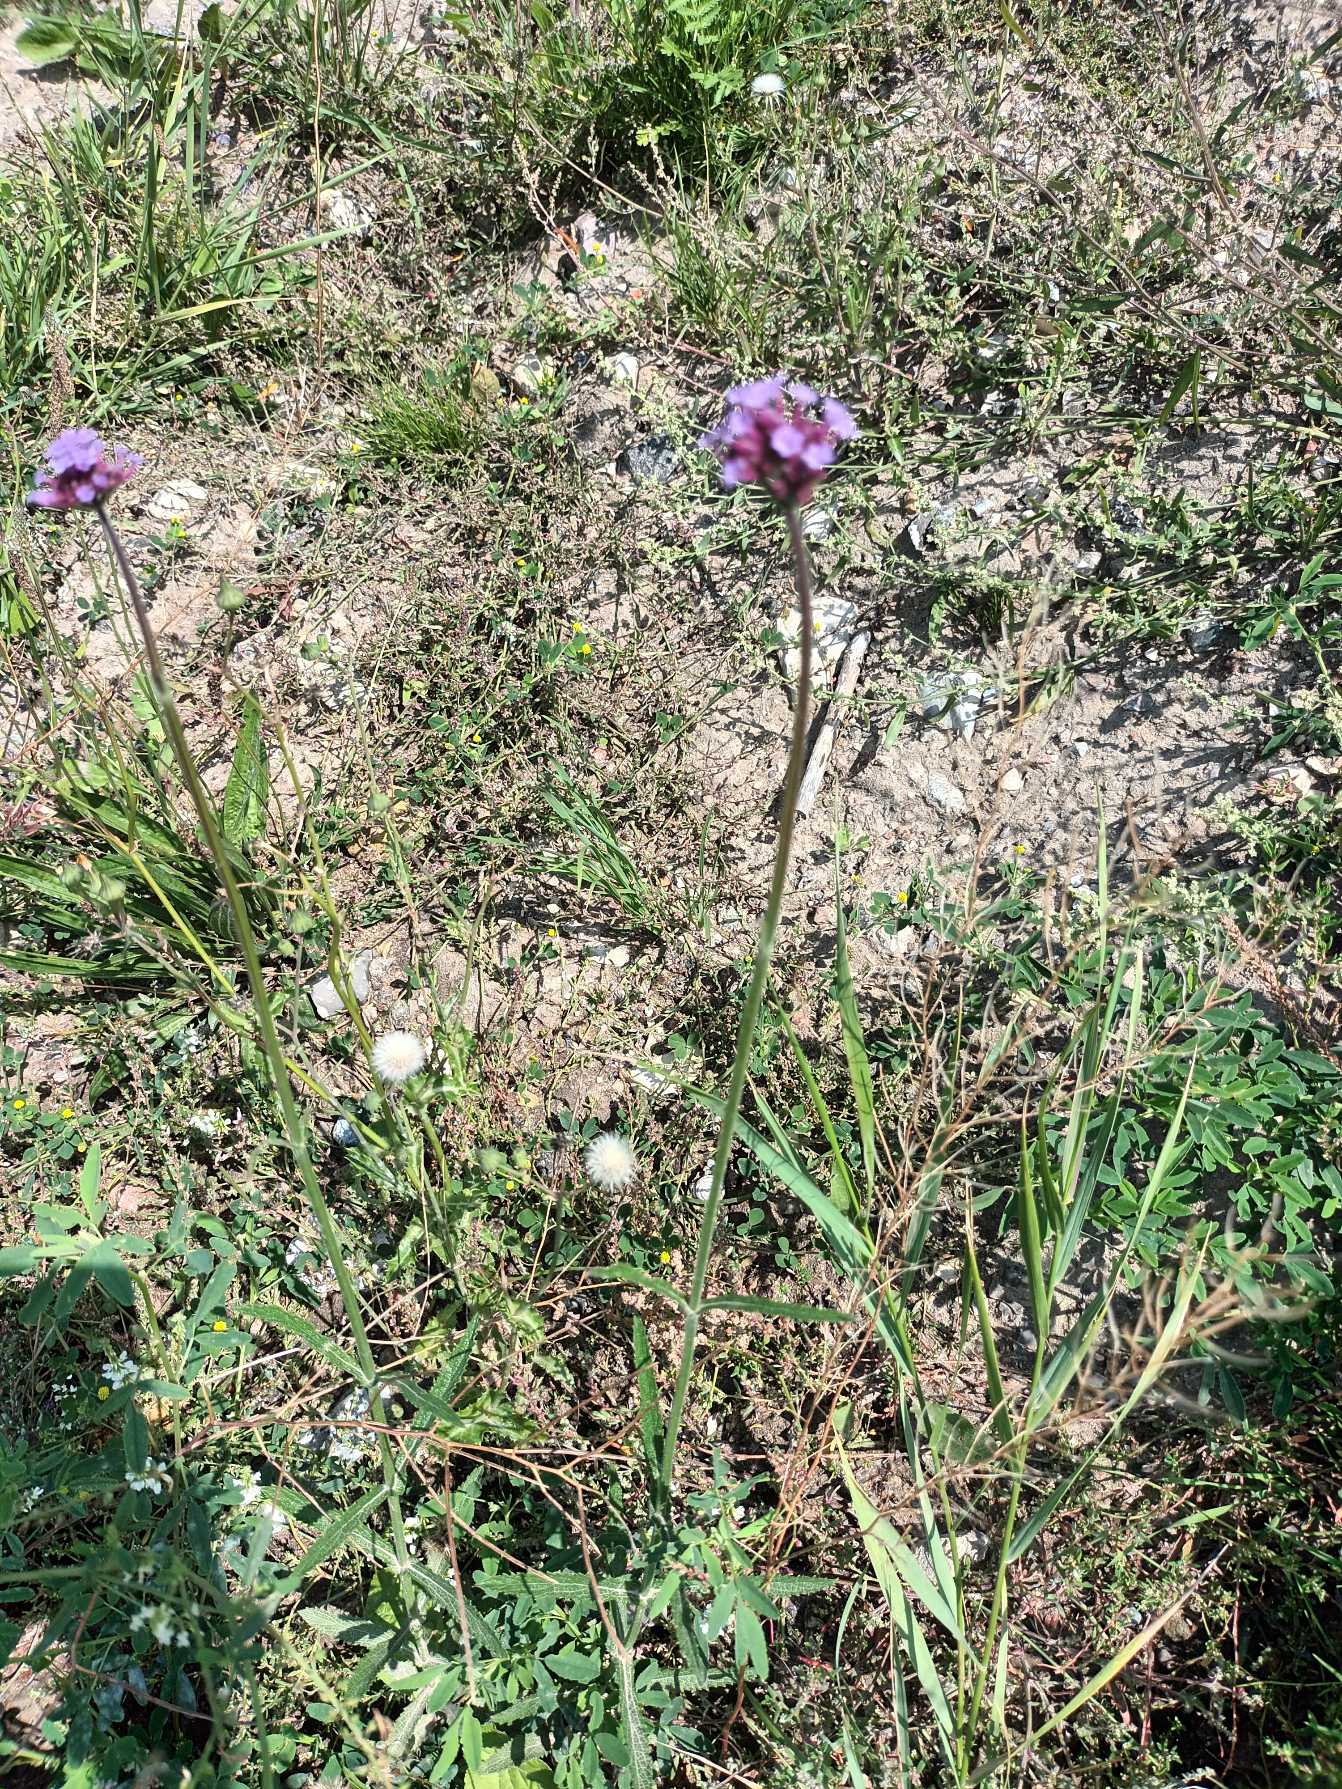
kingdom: Plantae
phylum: Tracheophyta
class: Magnoliopsida
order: Lamiales
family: Verbenaceae
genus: Verbena
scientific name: Verbena bonariensis
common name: Kæmpe-jernurt
